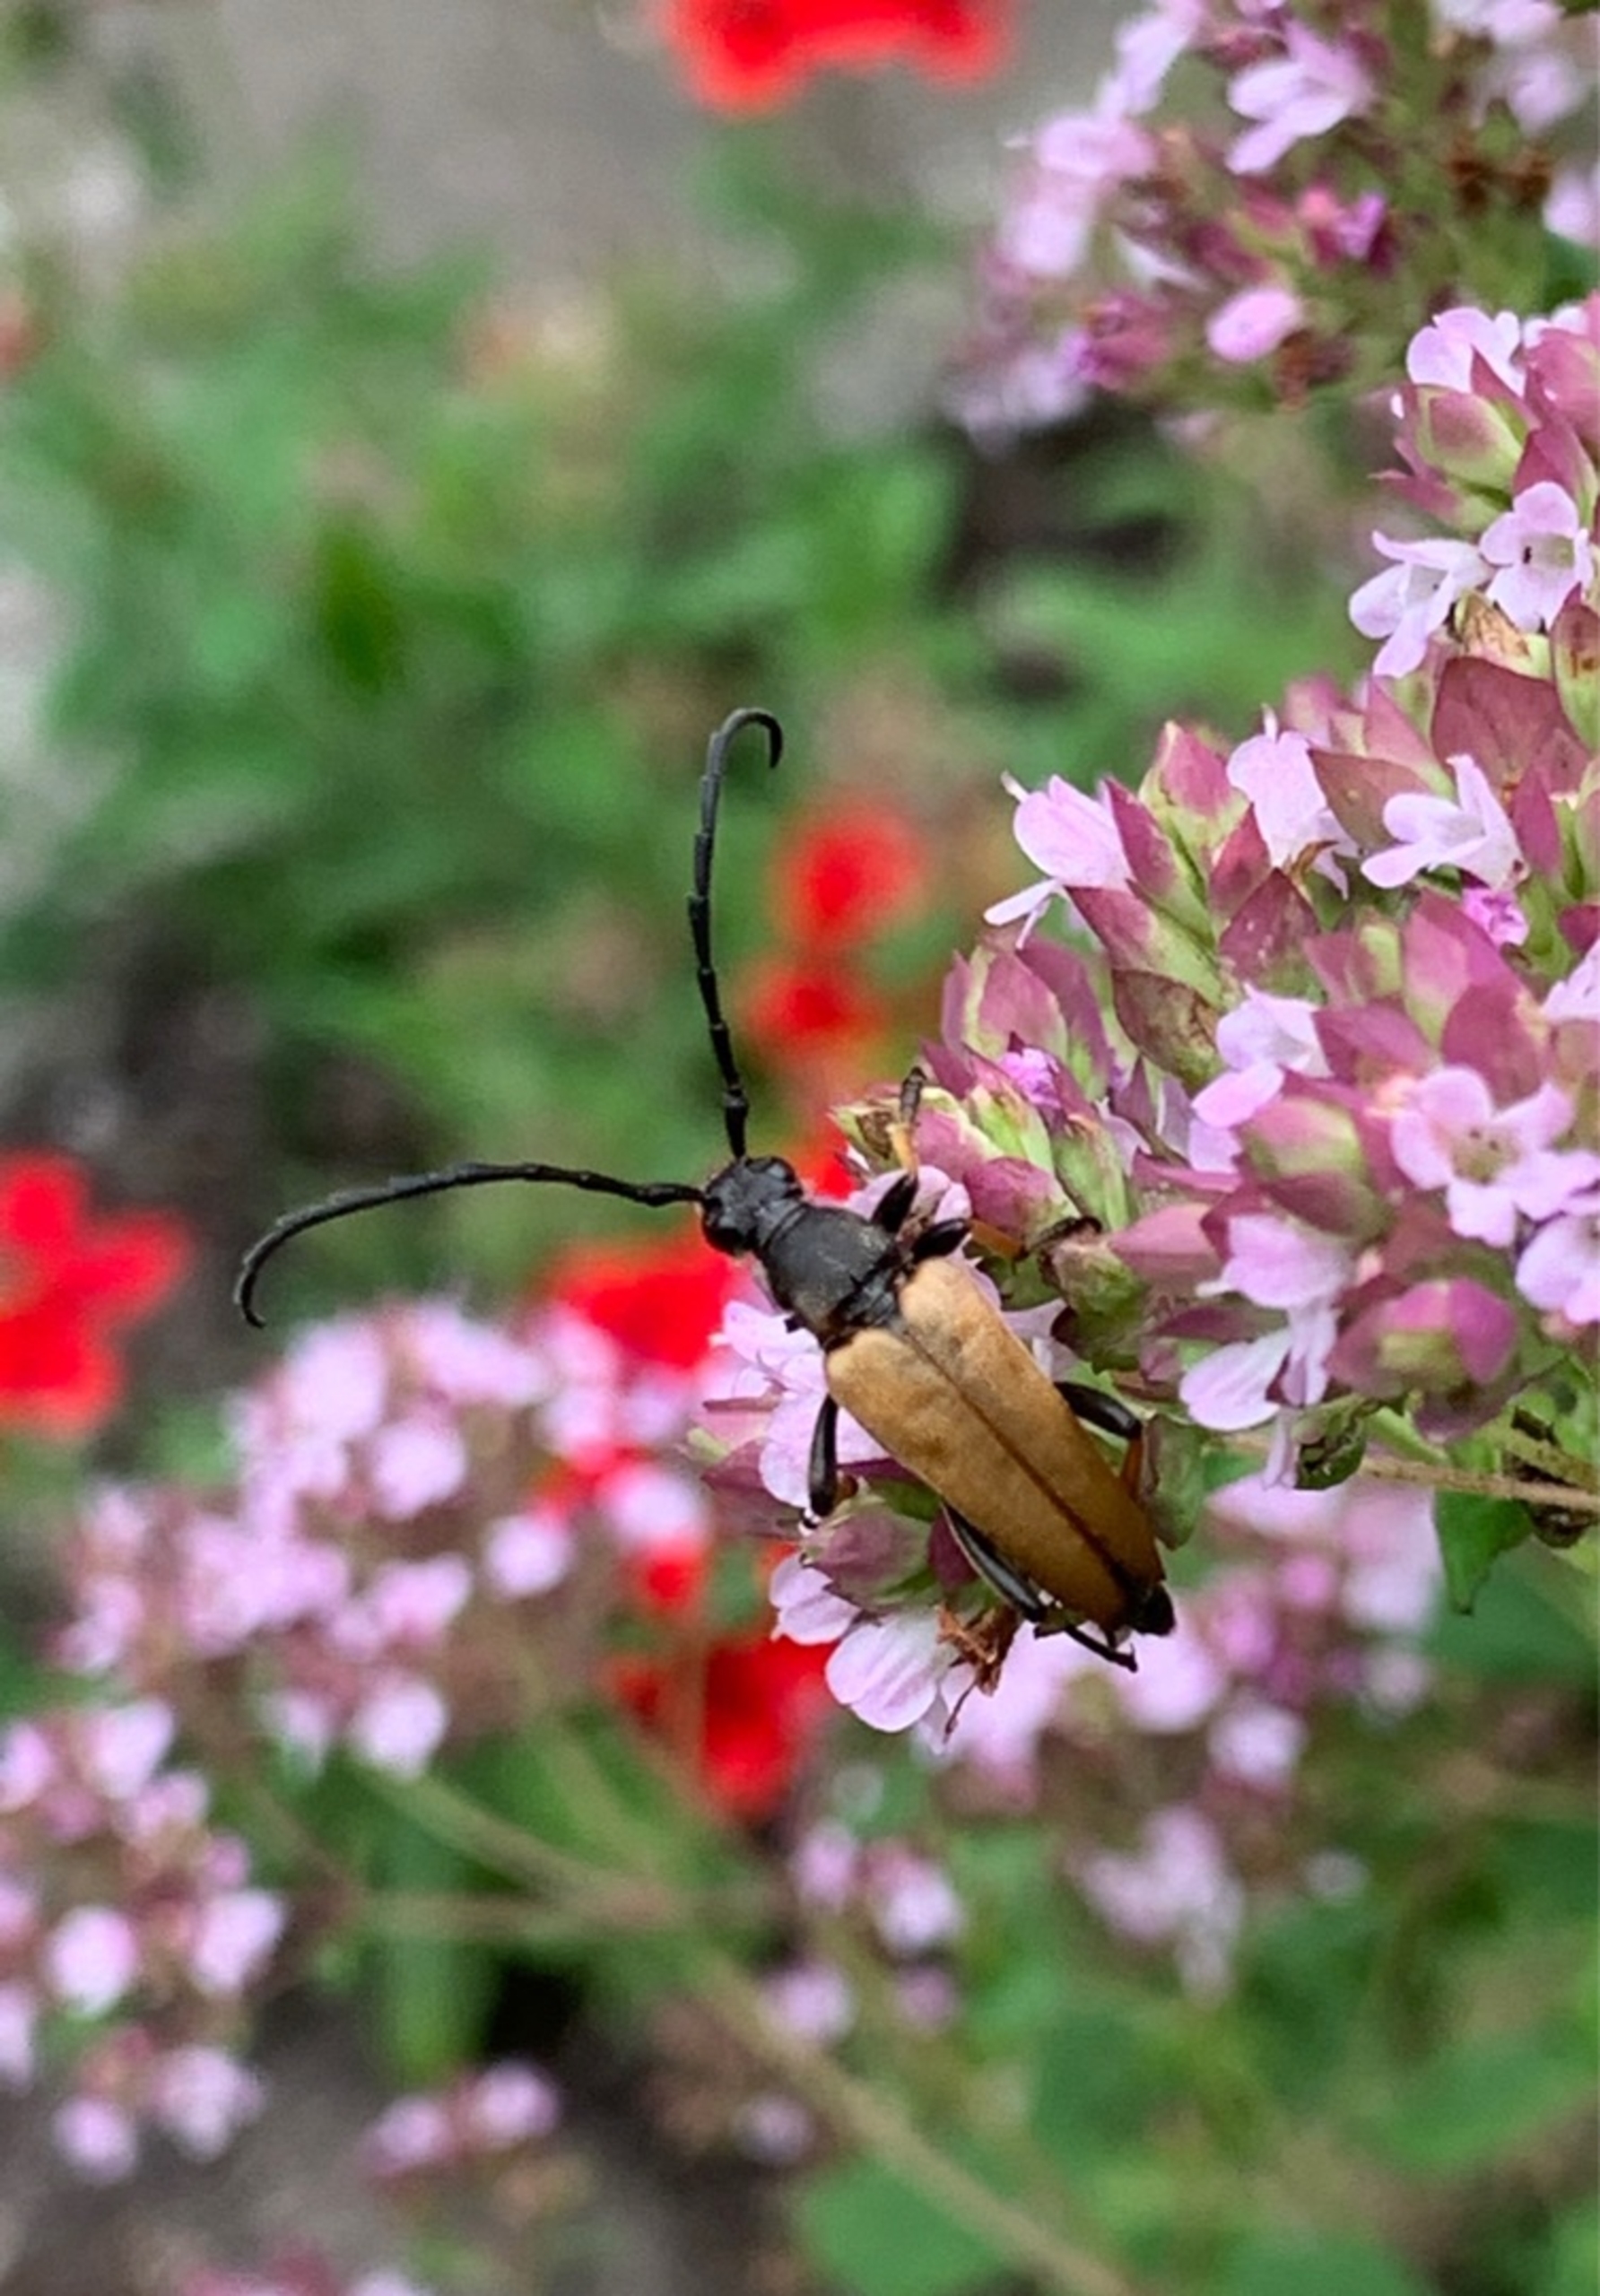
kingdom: Animalia
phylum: Arthropoda
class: Insecta
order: Coleoptera
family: Cerambycidae
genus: Stictoleptura
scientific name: Stictoleptura rubra
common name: Rød blomsterbuk
